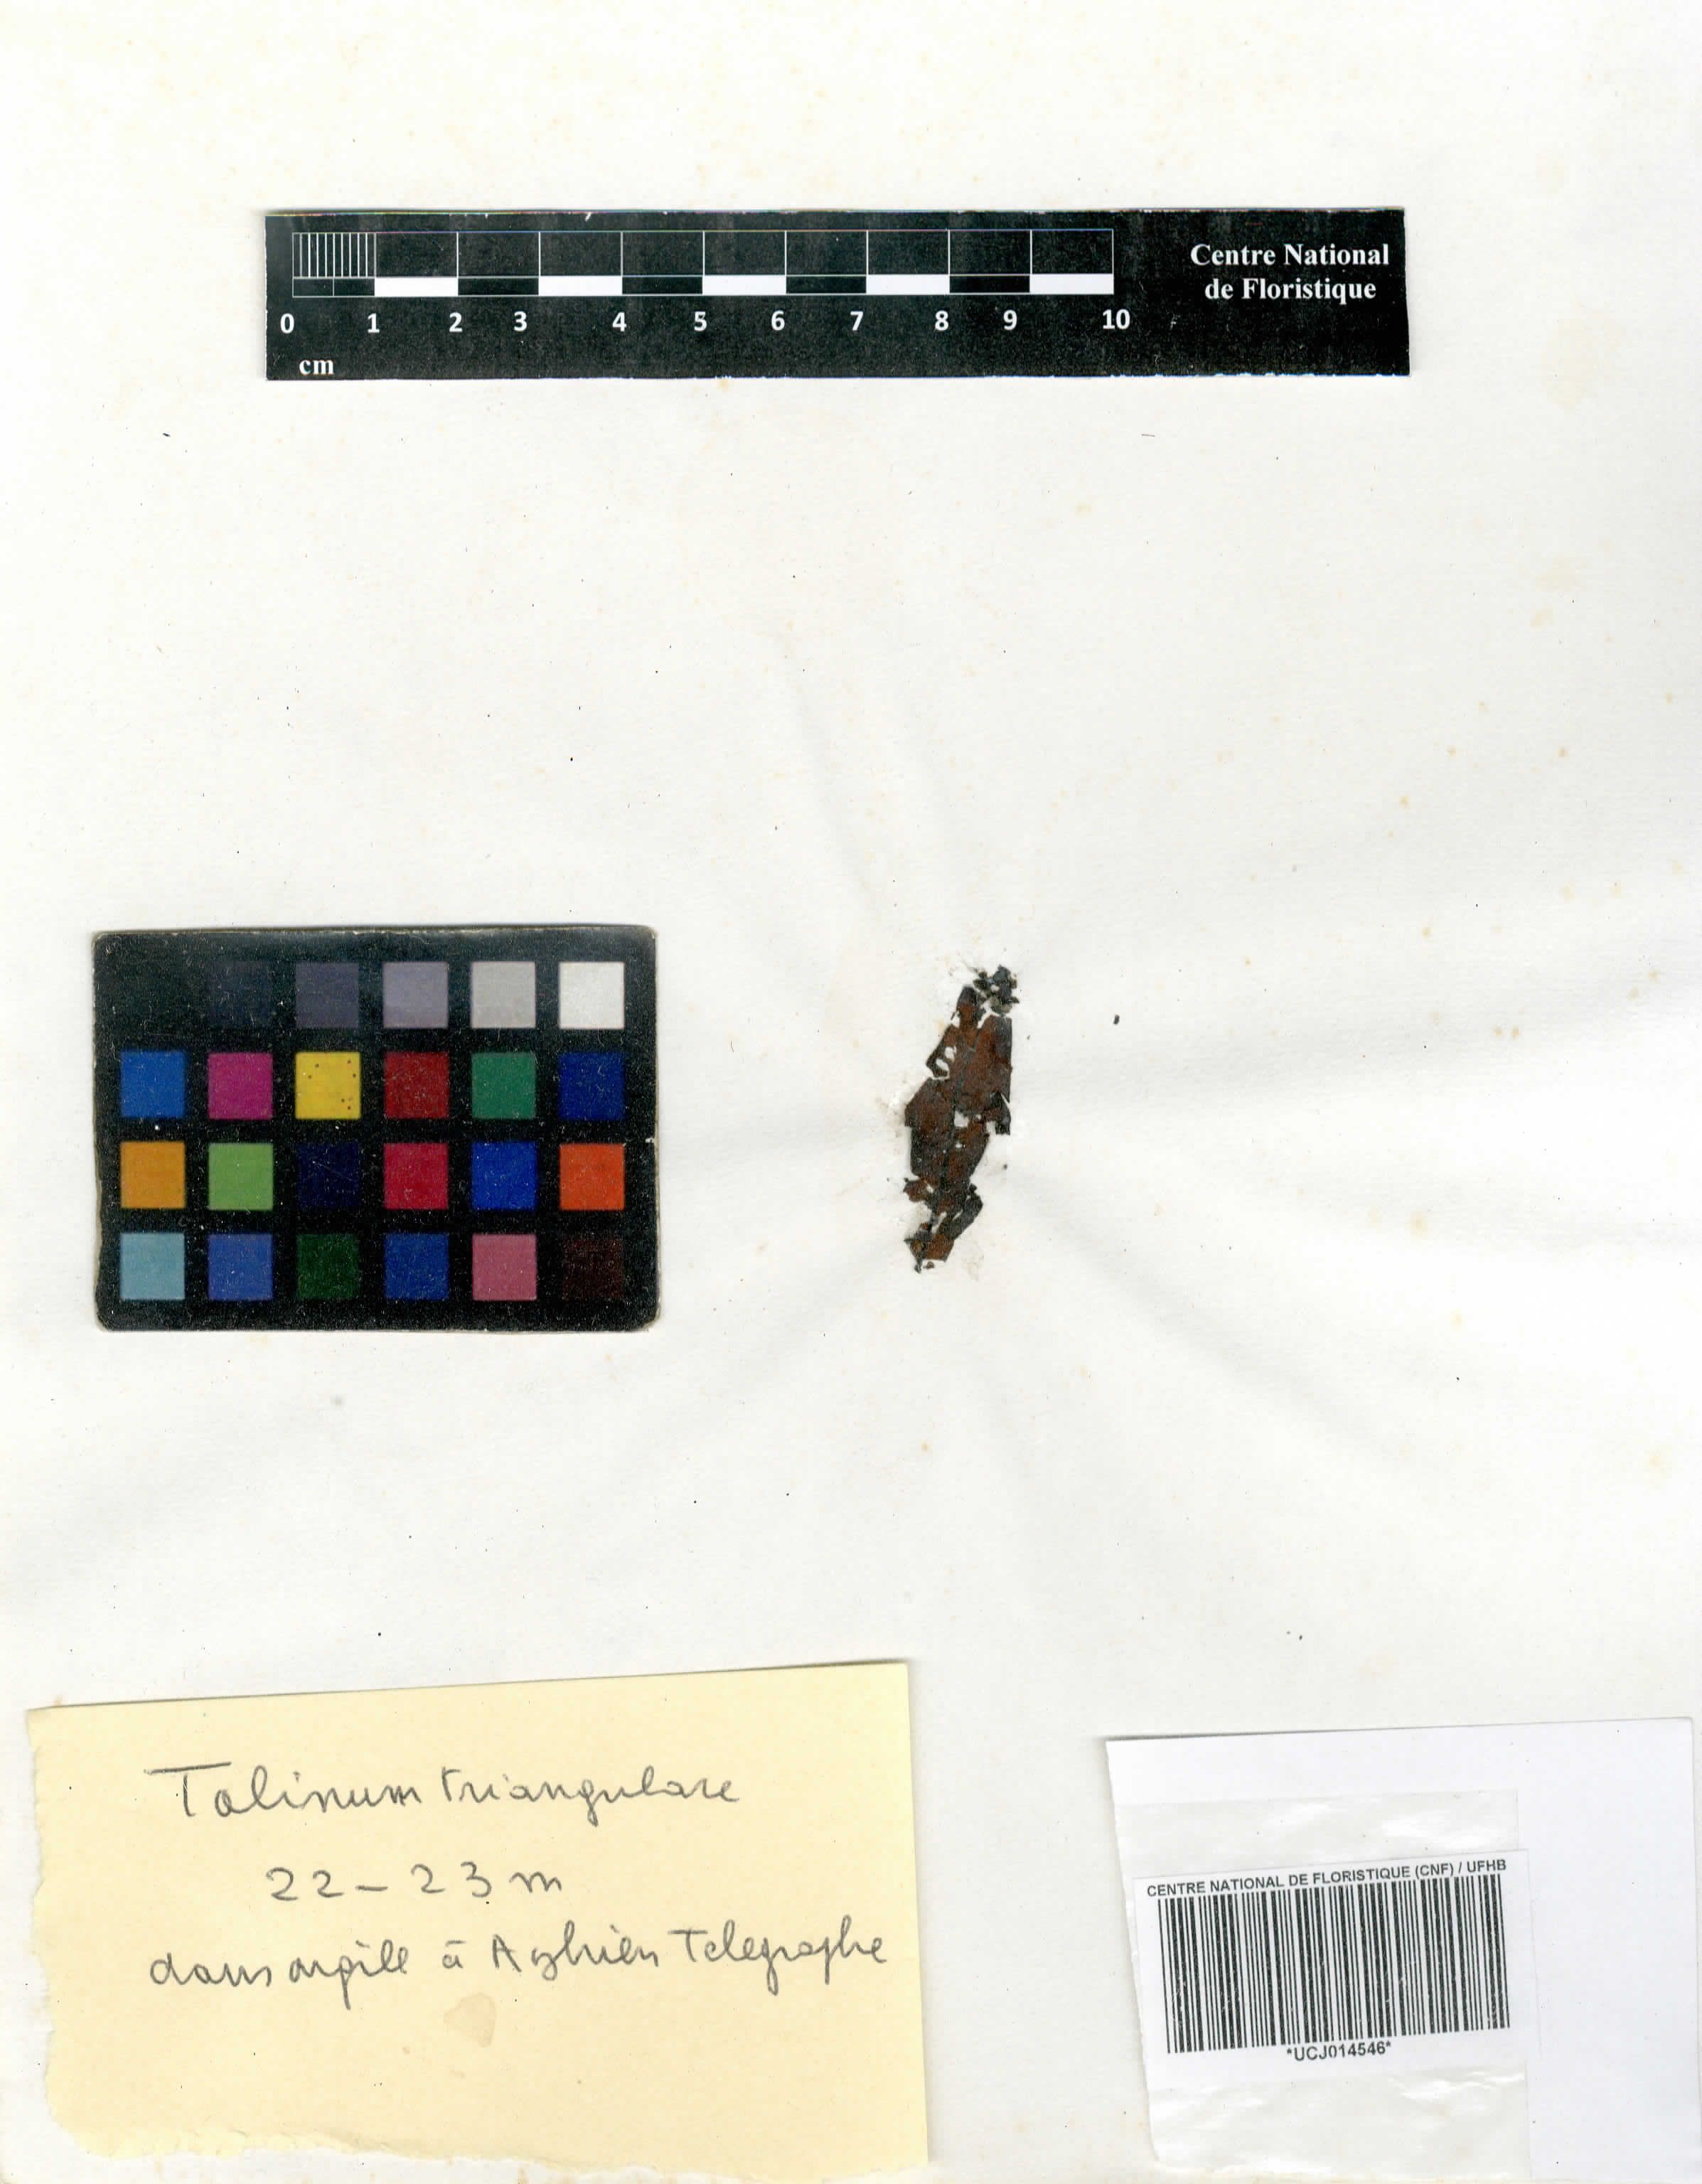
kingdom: Plantae
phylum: Tracheophyta
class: Magnoliopsida
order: Caryophyllales
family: Talinaceae
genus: Talinum
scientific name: Talinum fruticosum
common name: Verdolaga-francesa
